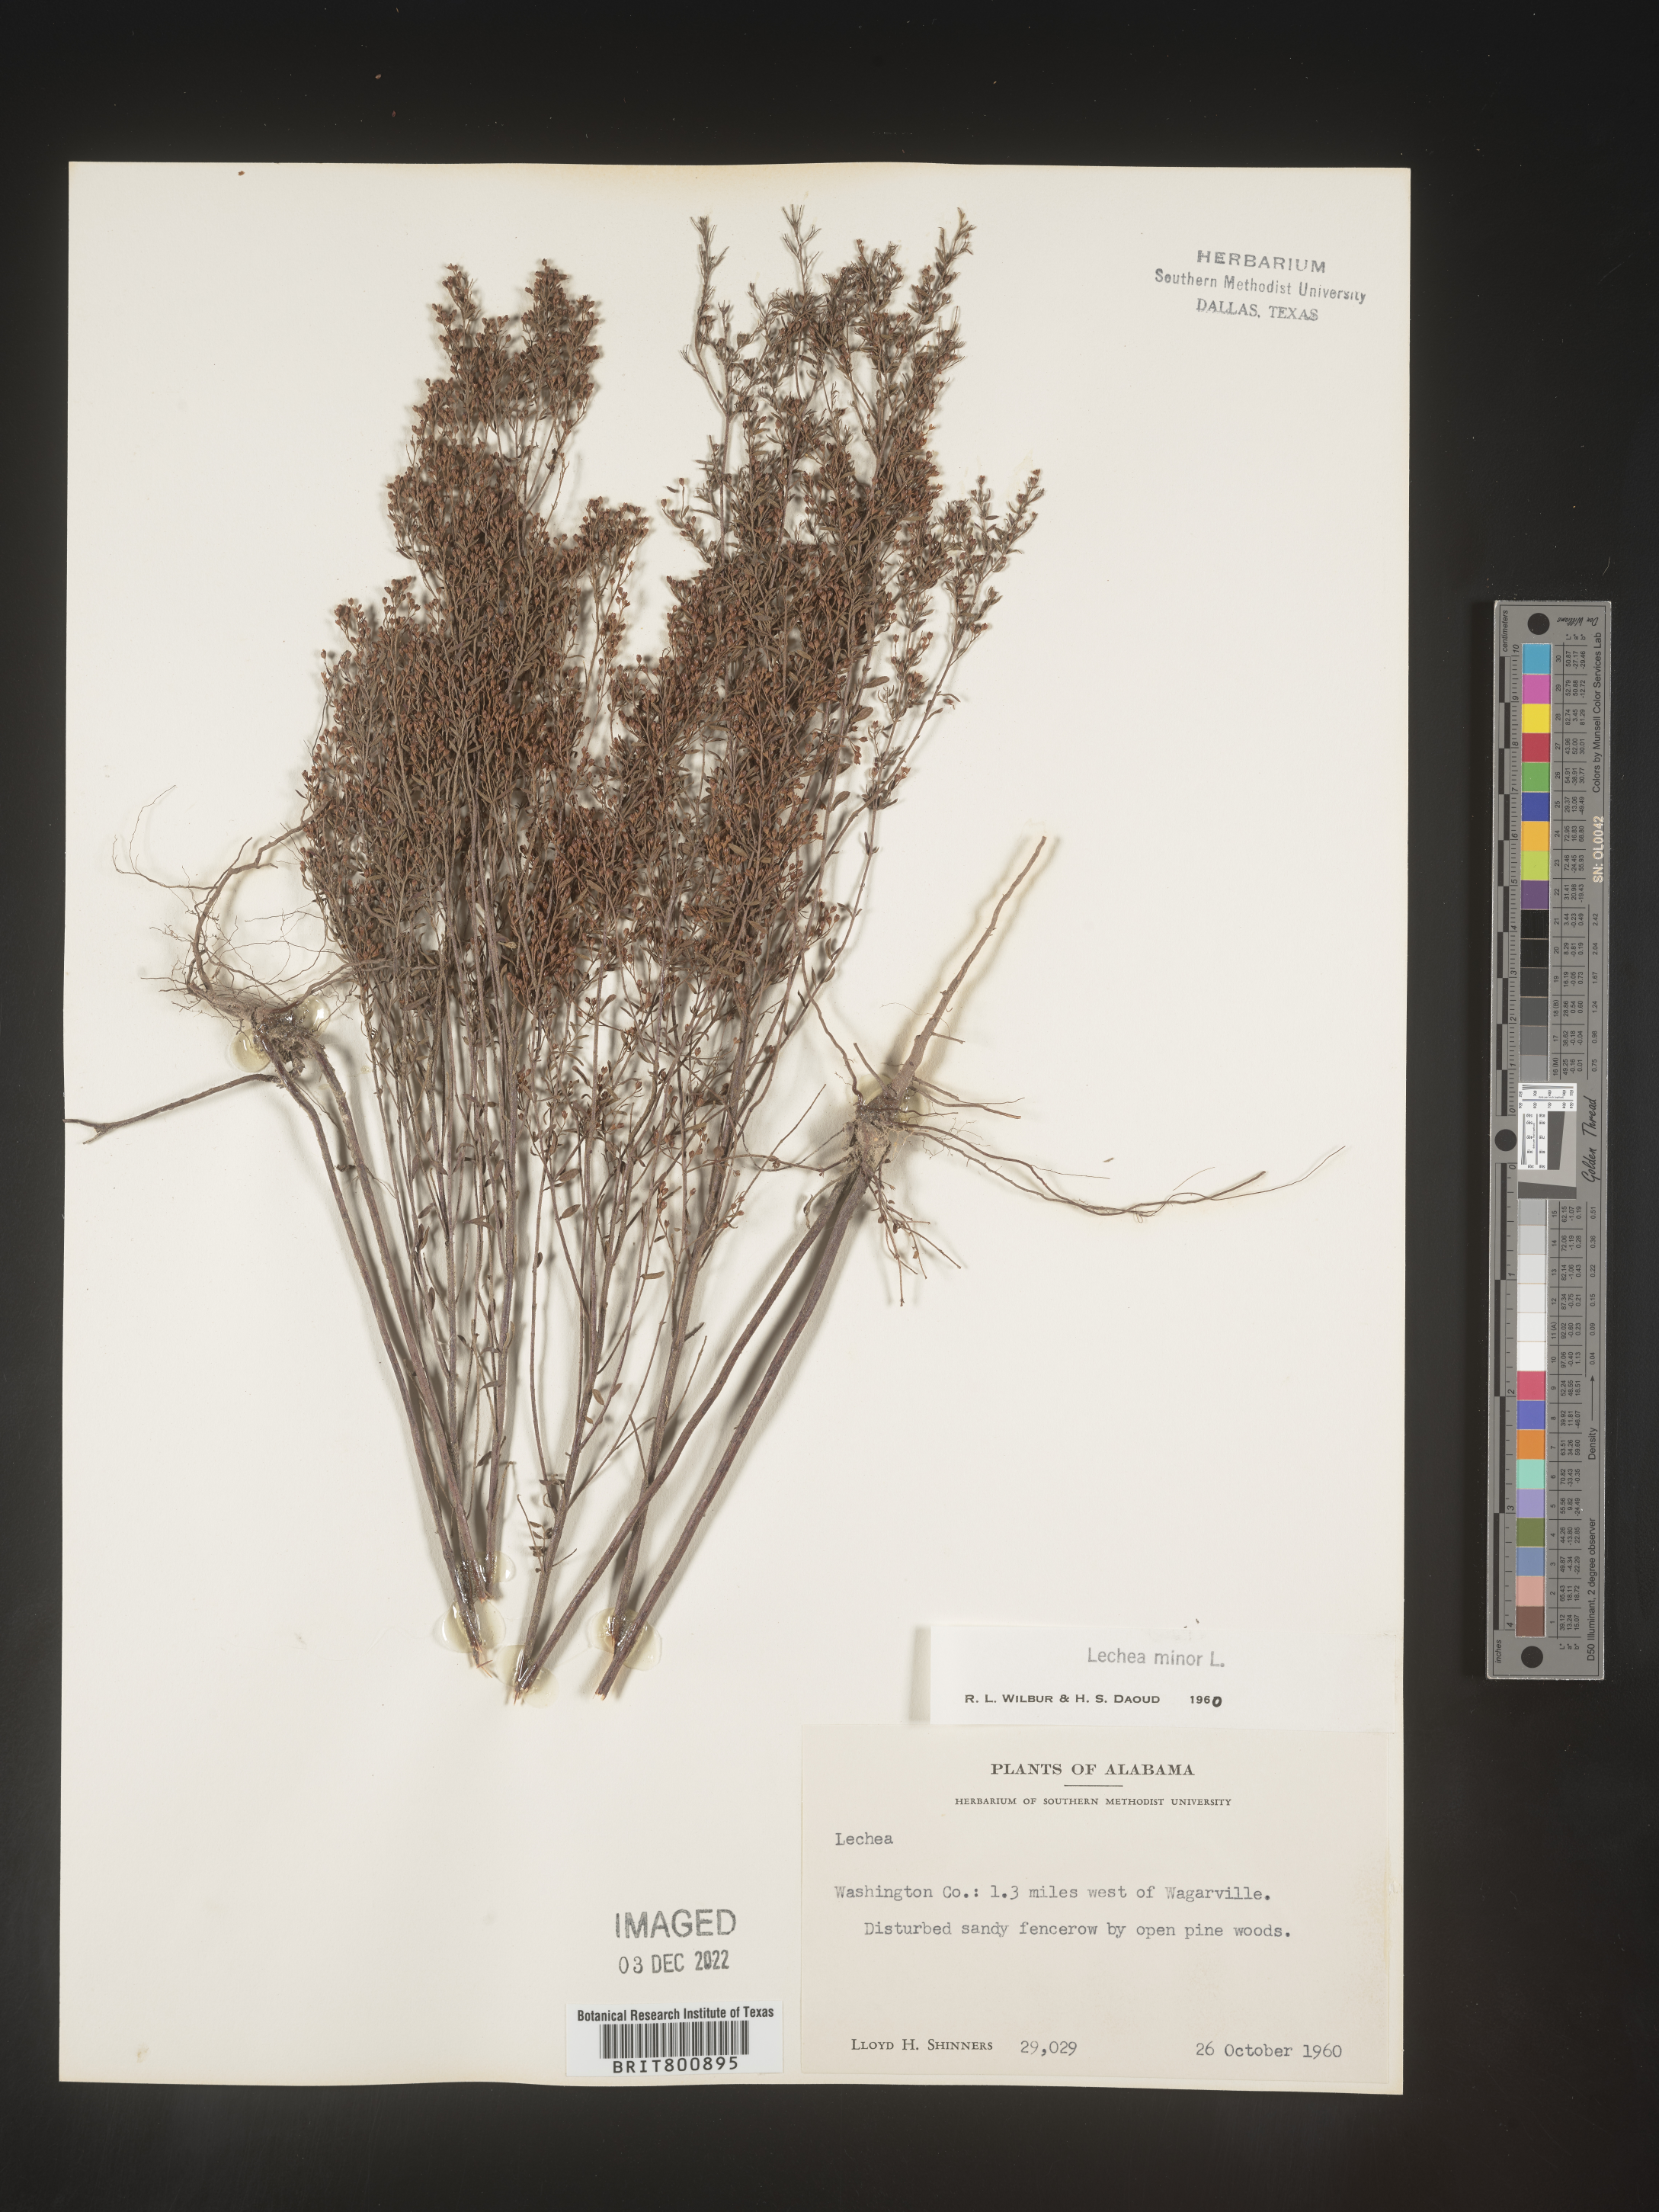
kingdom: Plantae
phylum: Tracheophyta
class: Magnoliopsida
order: Malvales
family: Cistaceae
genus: Lechea
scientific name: Lechea minor
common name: Thyme-leaf pinweed
